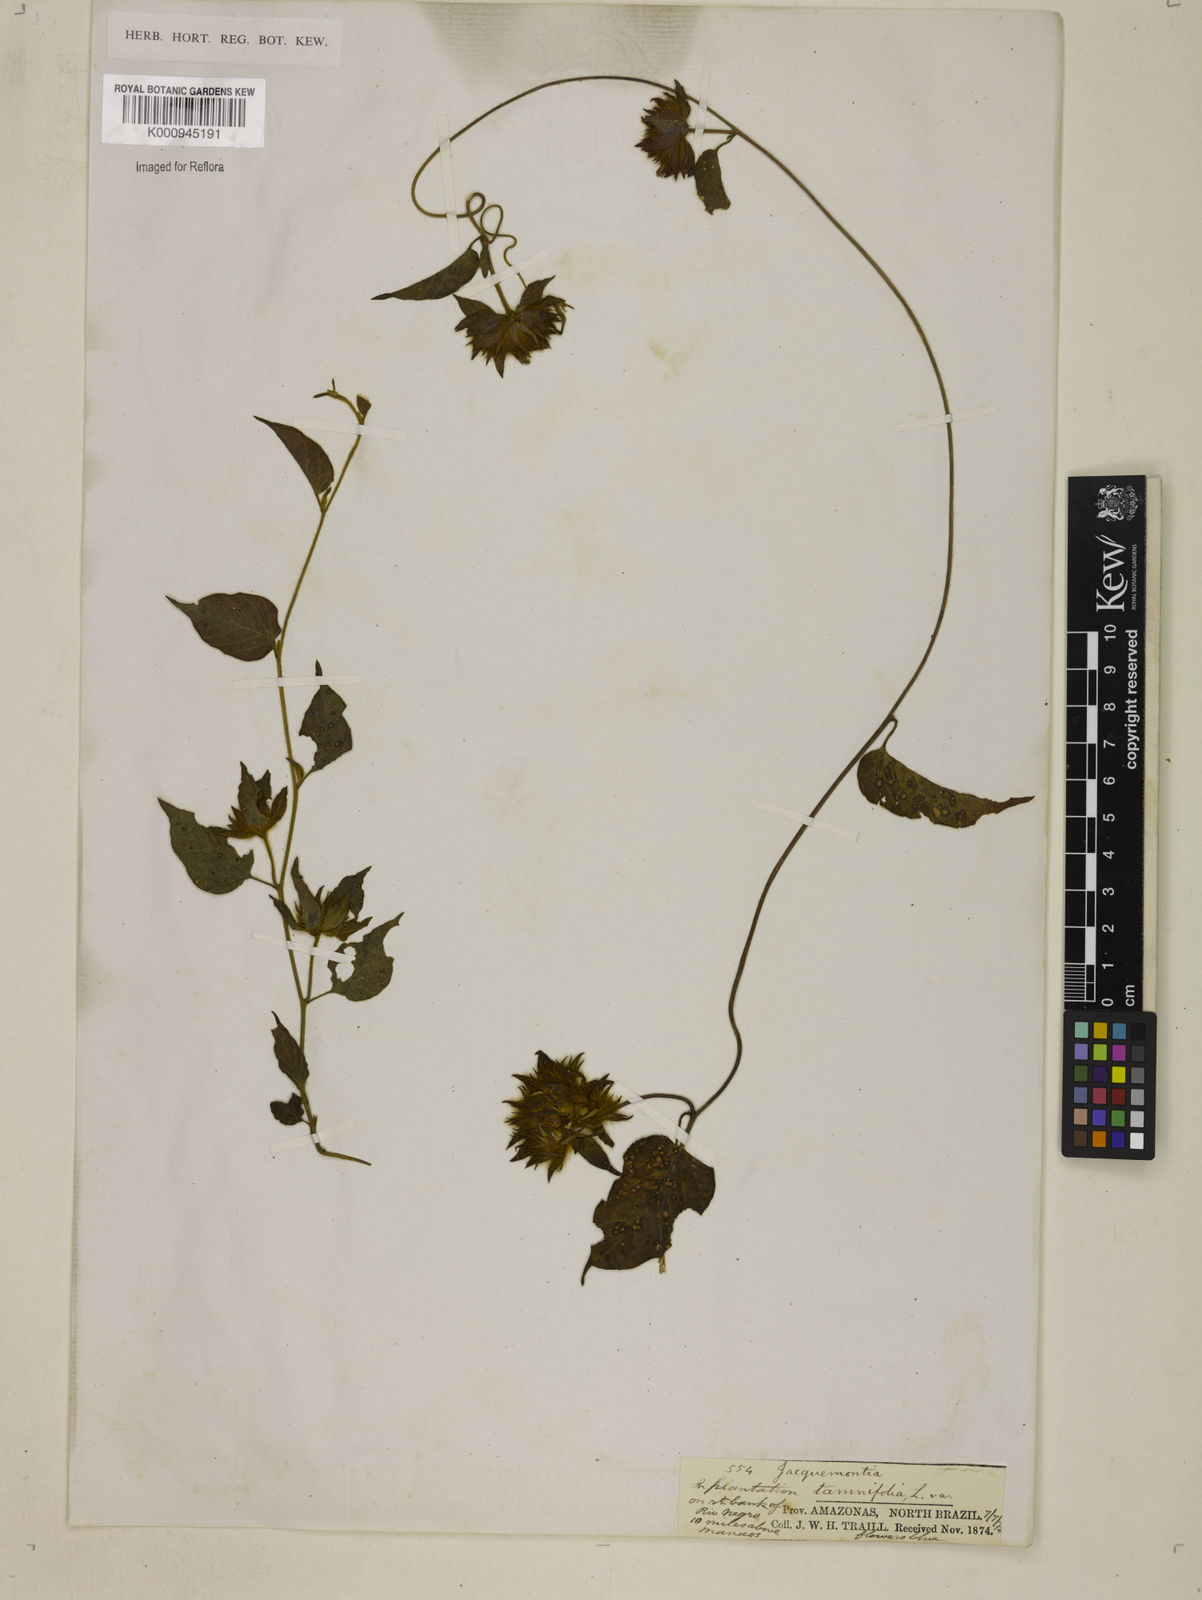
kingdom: Plantae
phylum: Tracheophyta
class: Magnoliopsida
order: Solanales
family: Convolvulaceae
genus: Jacquemontia
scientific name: Jacquemontia tamnifolia
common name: Hairy clustervine
